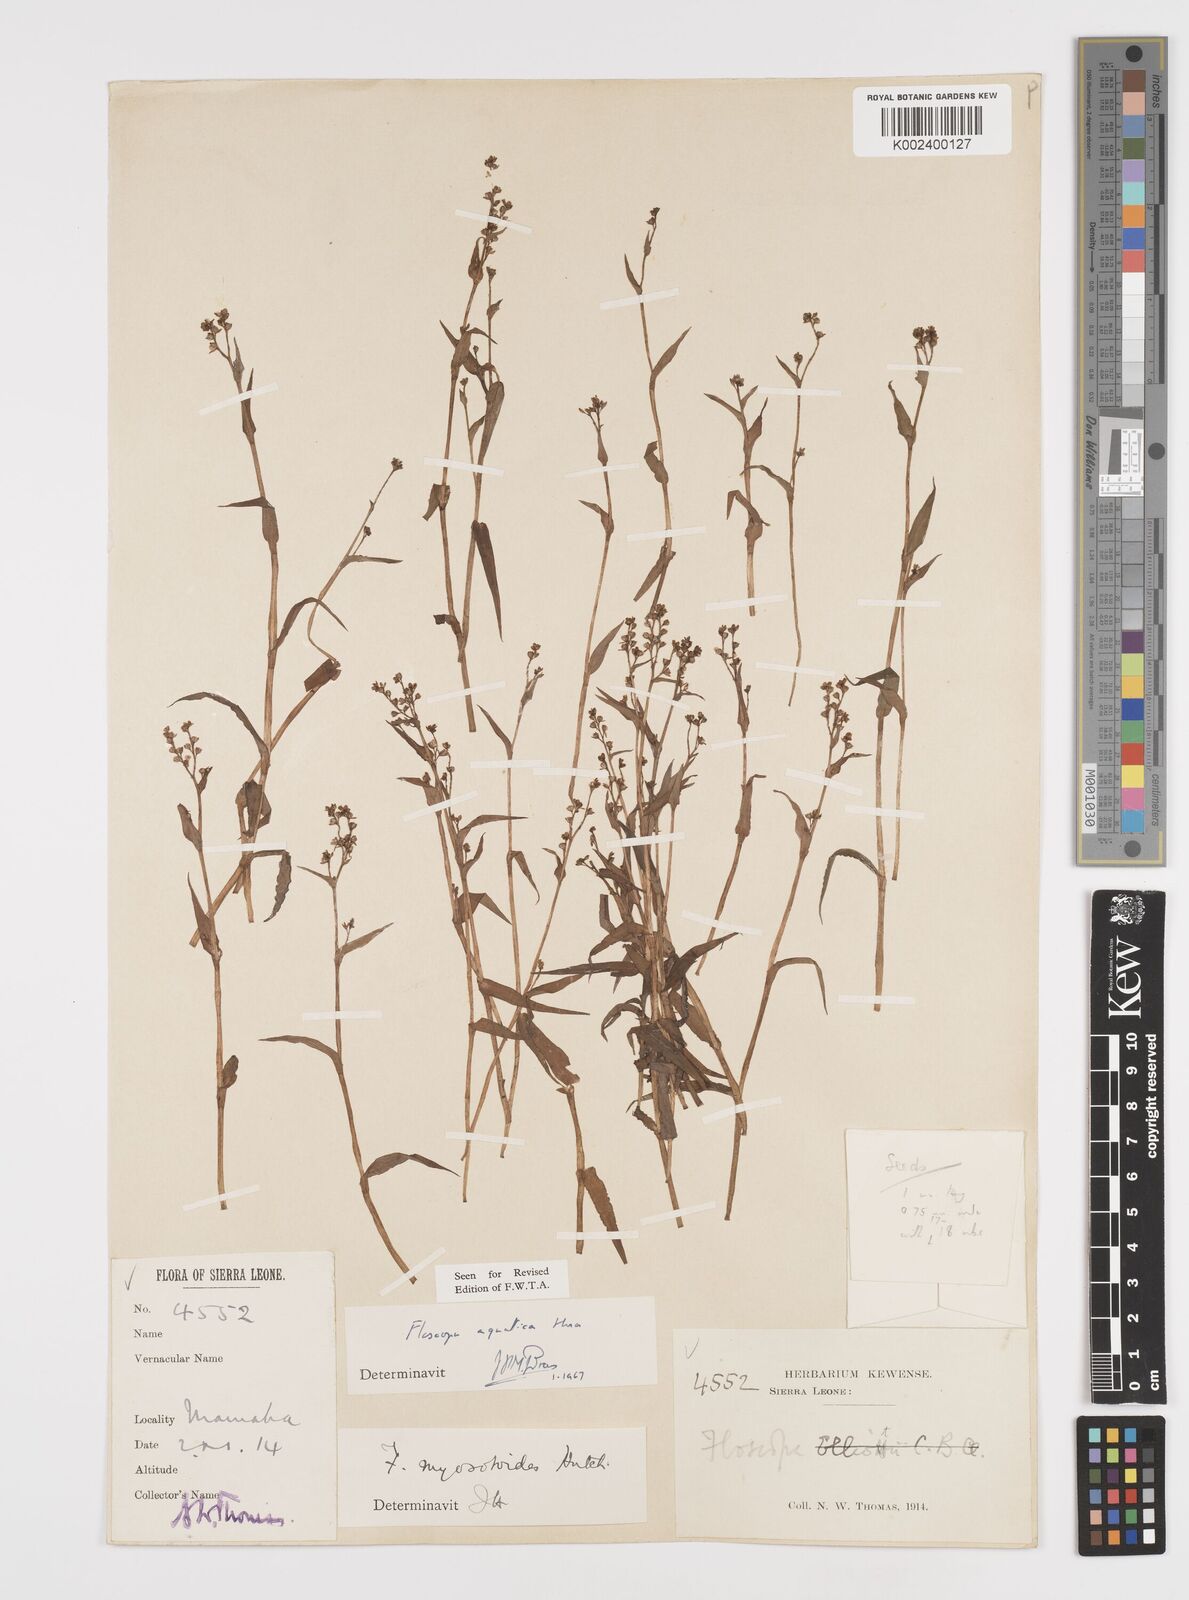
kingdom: Plantae
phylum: Tracheophyta
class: Liliopsida
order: Commelinales
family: Commelinaceae
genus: Floscopa
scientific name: Floscopa aquatica
